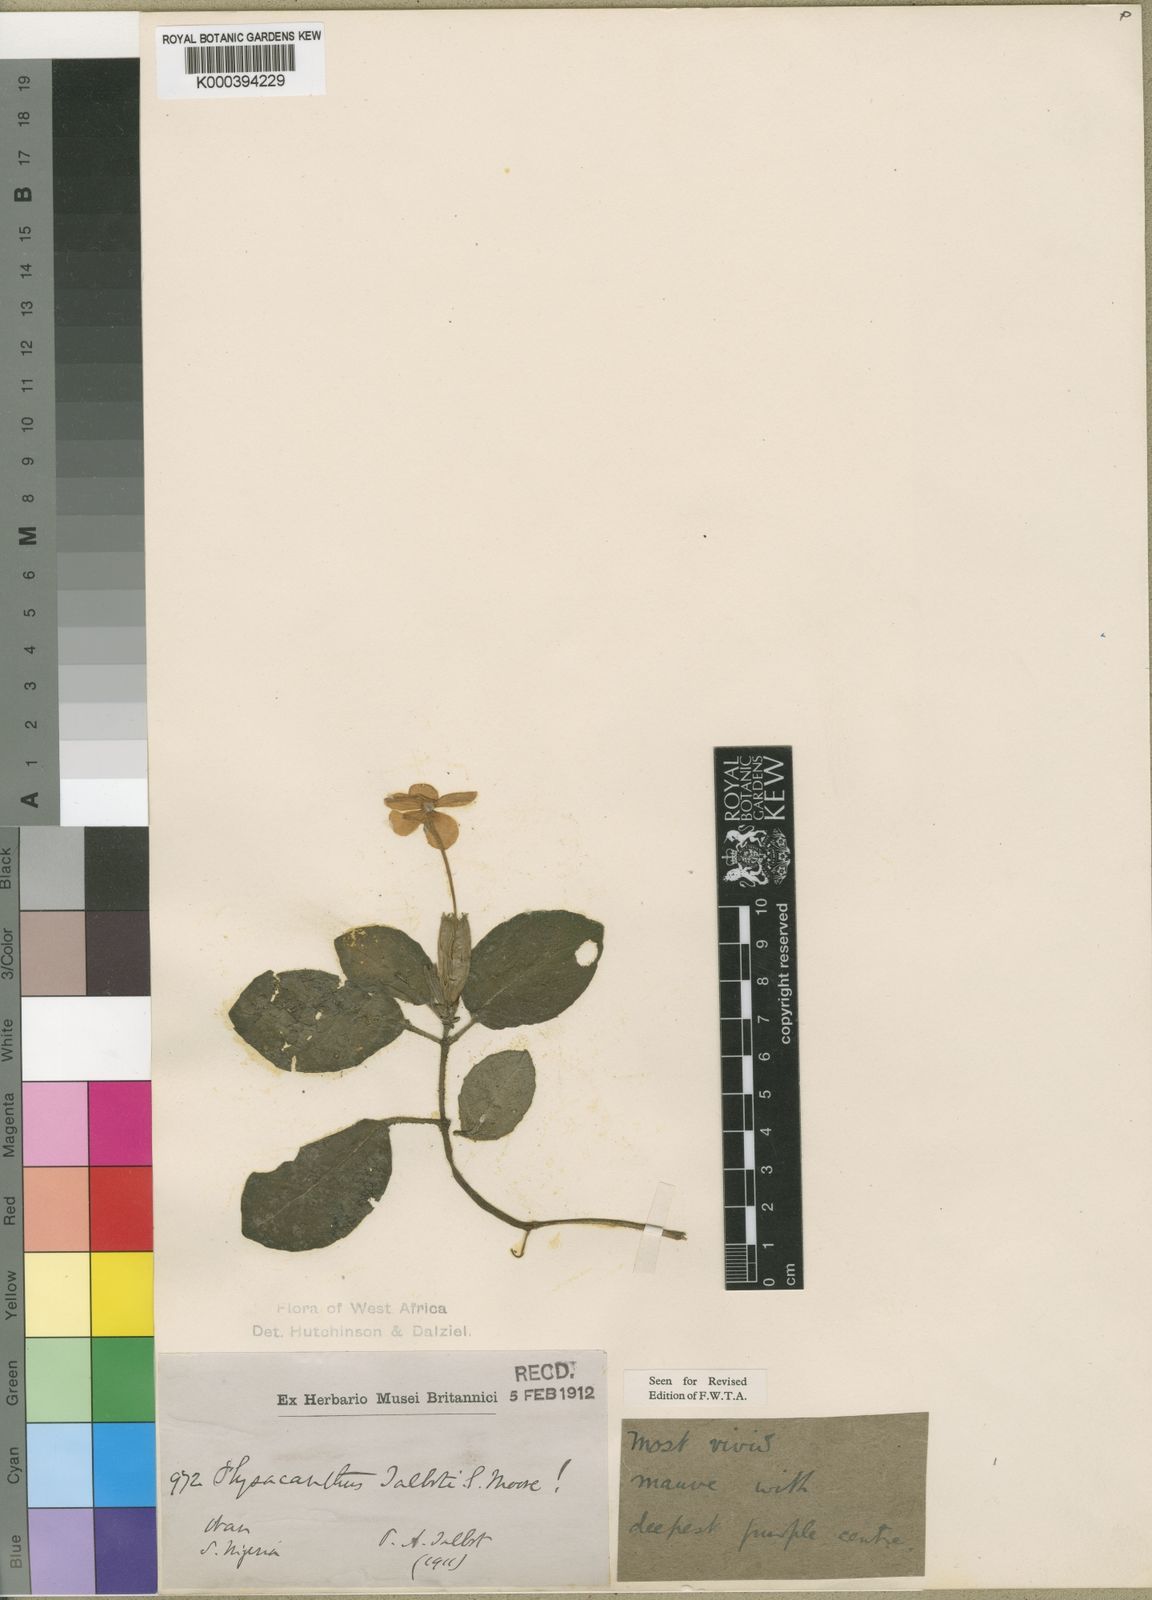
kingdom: Plantae
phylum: Tracheophyta
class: Magnoliopsida
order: Lamiales
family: Acanthaceae
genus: Physacanthus
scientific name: Physacanthus talbotii
